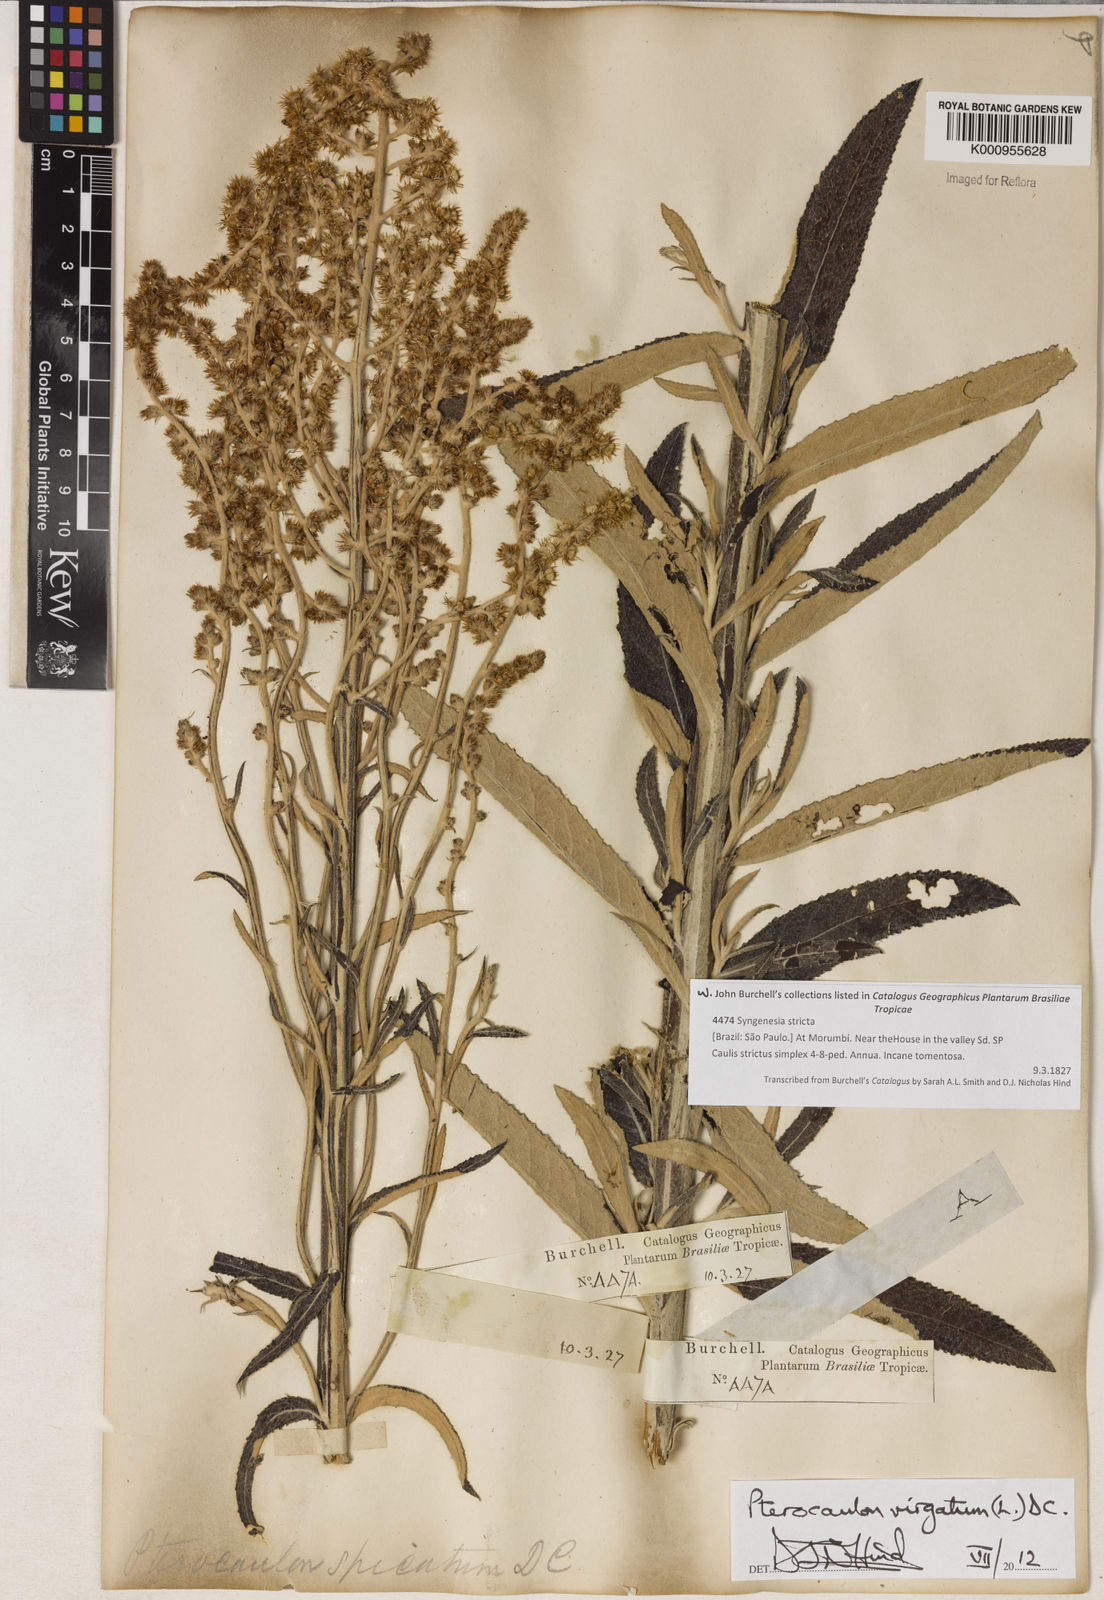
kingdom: Plantae
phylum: Tracheophyta
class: Magnoliopsida
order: Asterales
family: Asteraceae
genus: Pterocaulon
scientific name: Pterocaulon virgatum
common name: Wand blackroot
